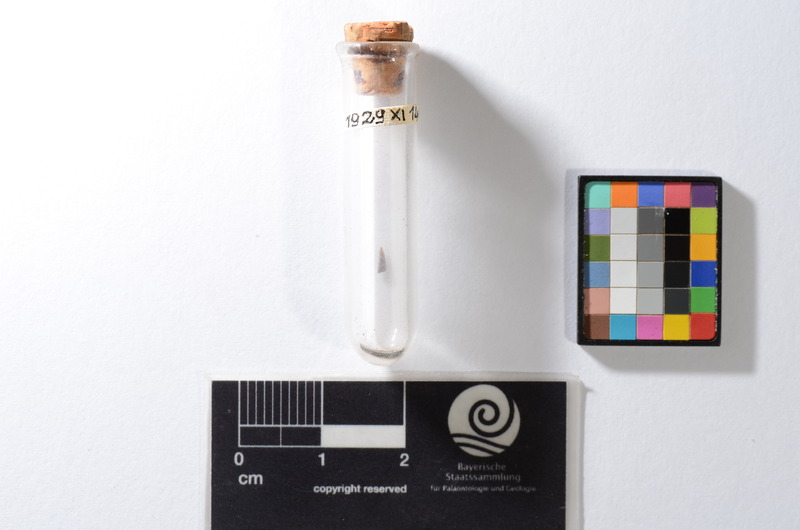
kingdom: Animalia
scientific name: Animalia
